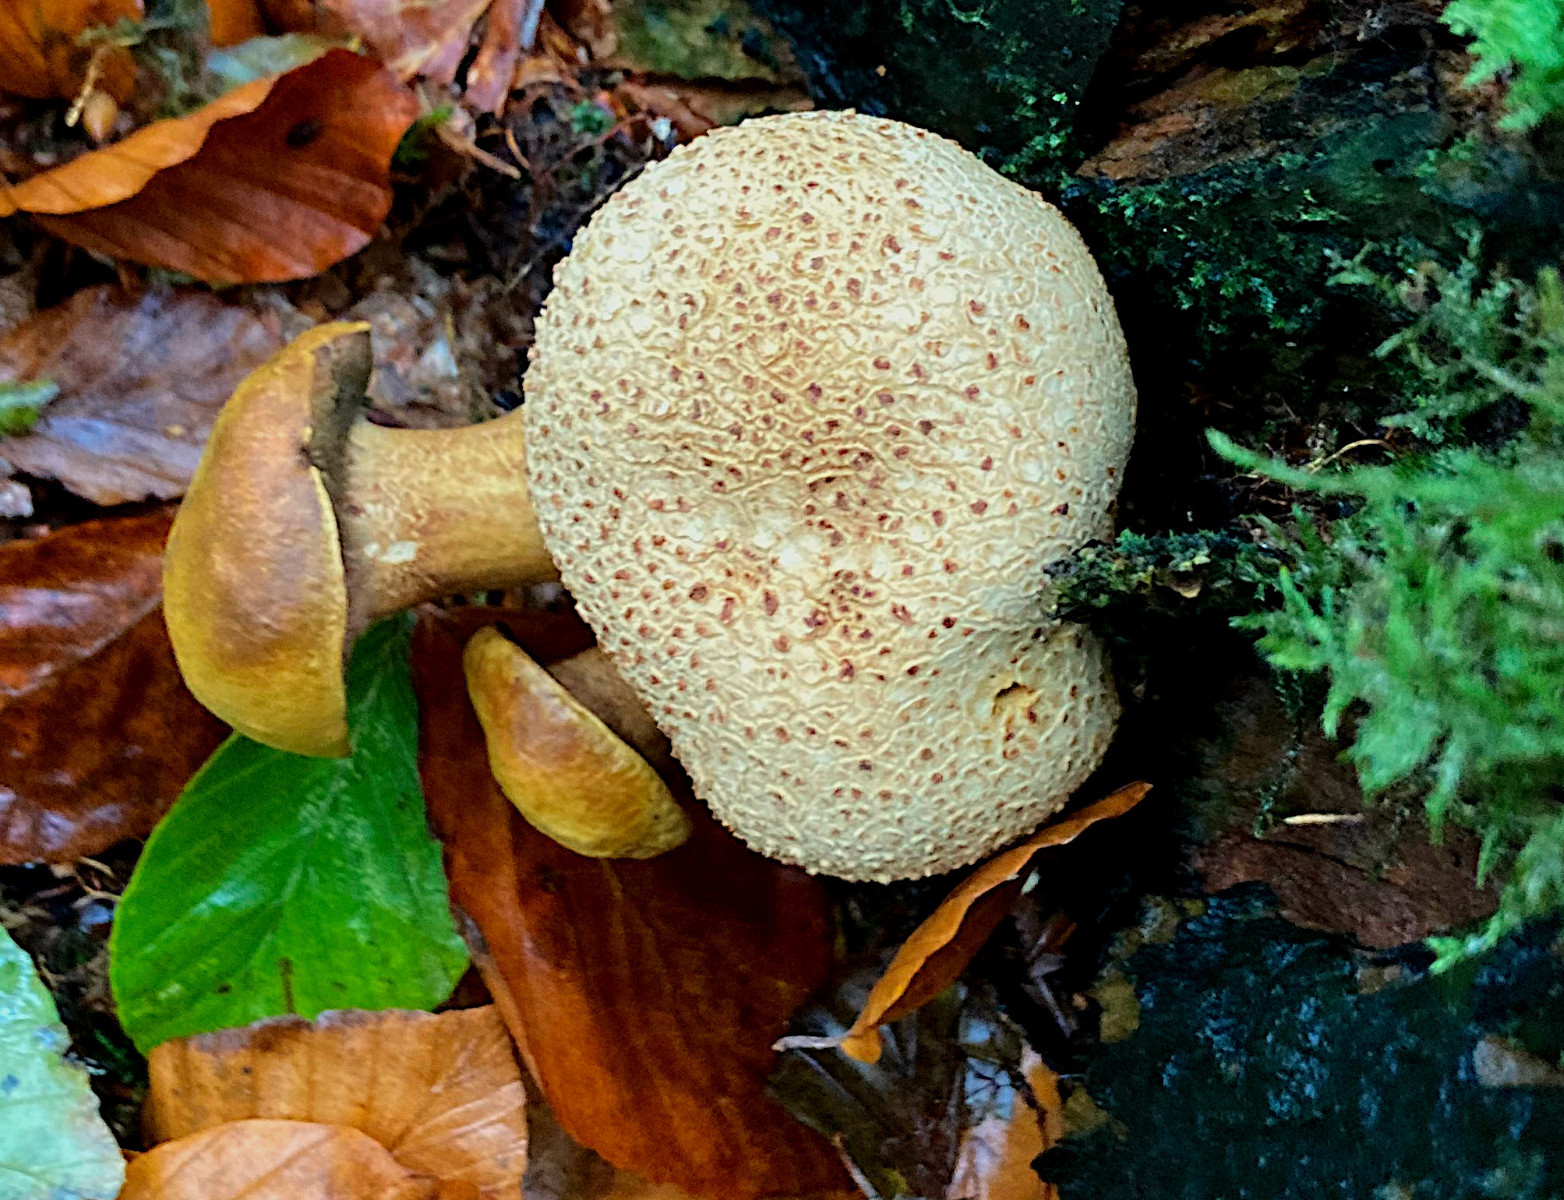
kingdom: Fungi
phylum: Basidiomycota
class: Agaricomycetes
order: Boletales
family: Boletaceae
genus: Pseudoboletus
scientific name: Pseudoboletus parasiticus
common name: snyltende rørhat
